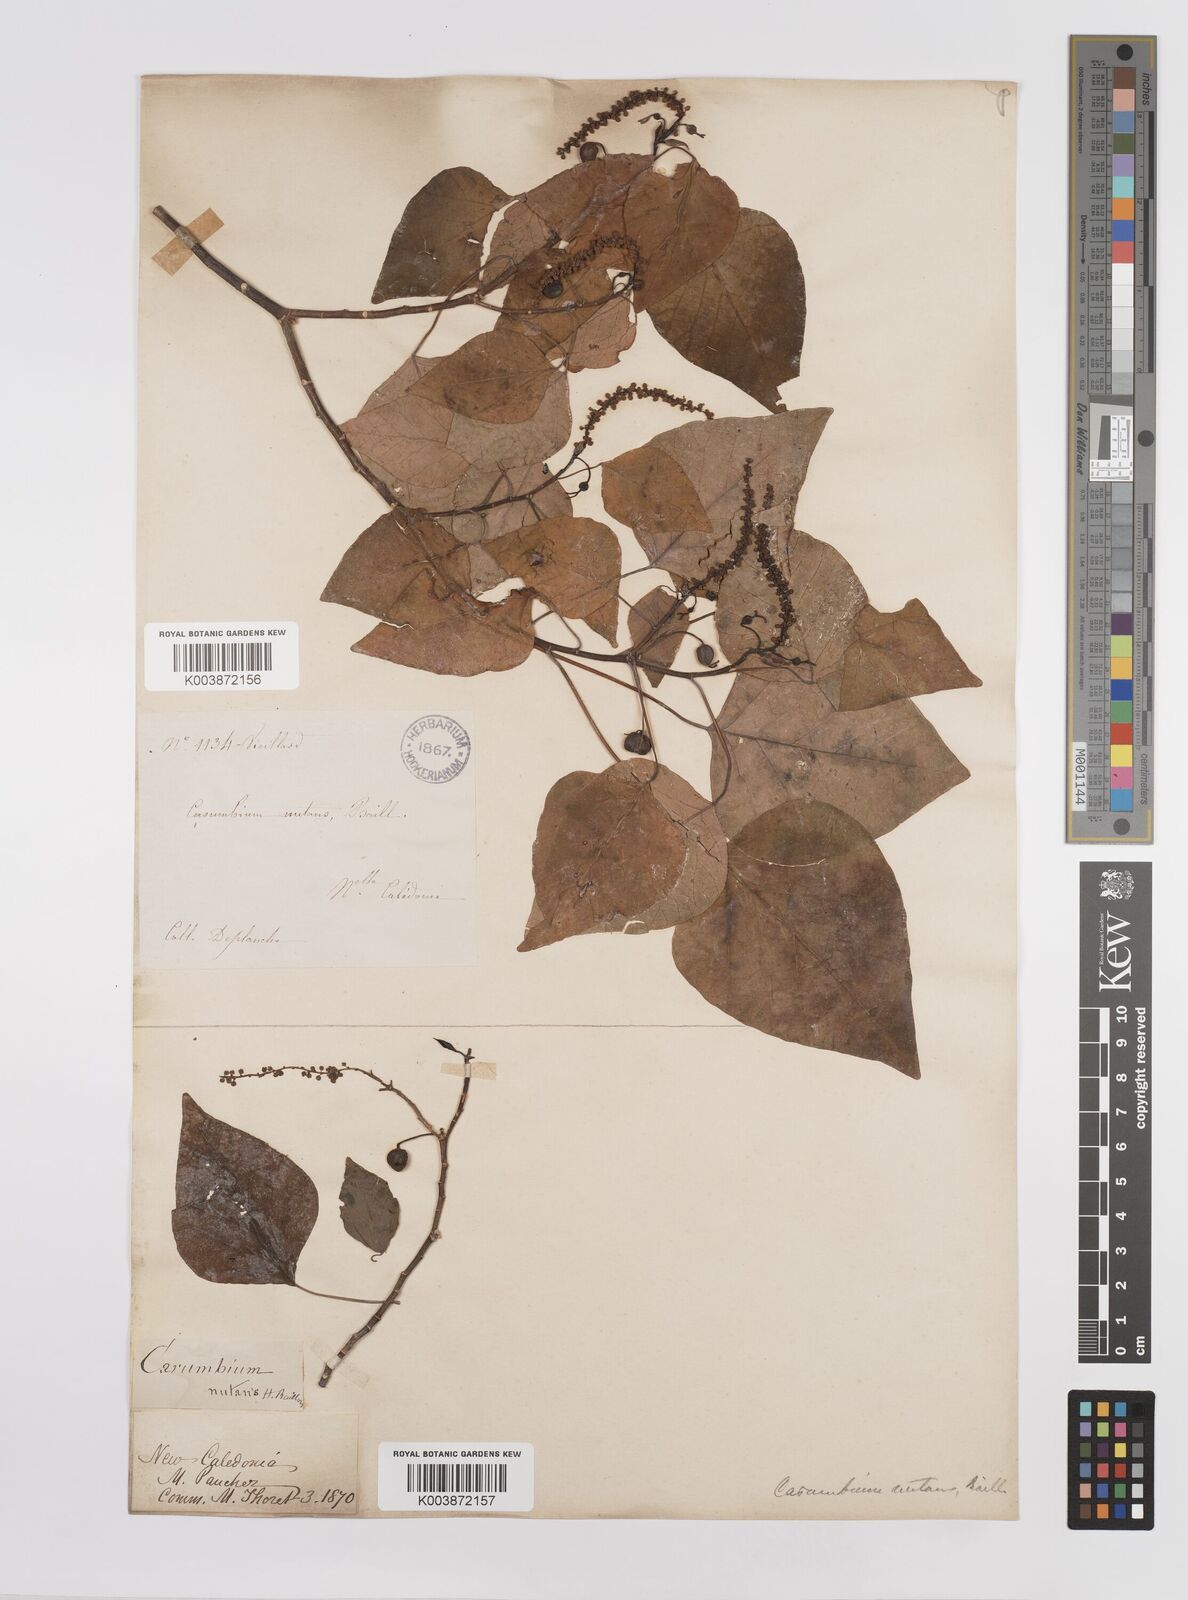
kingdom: Plantae
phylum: Tracheophyta
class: Magnoliopsida
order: Malpighiales
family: Euphorbiaceae
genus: Homalanthus
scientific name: Homalanthus nutans
